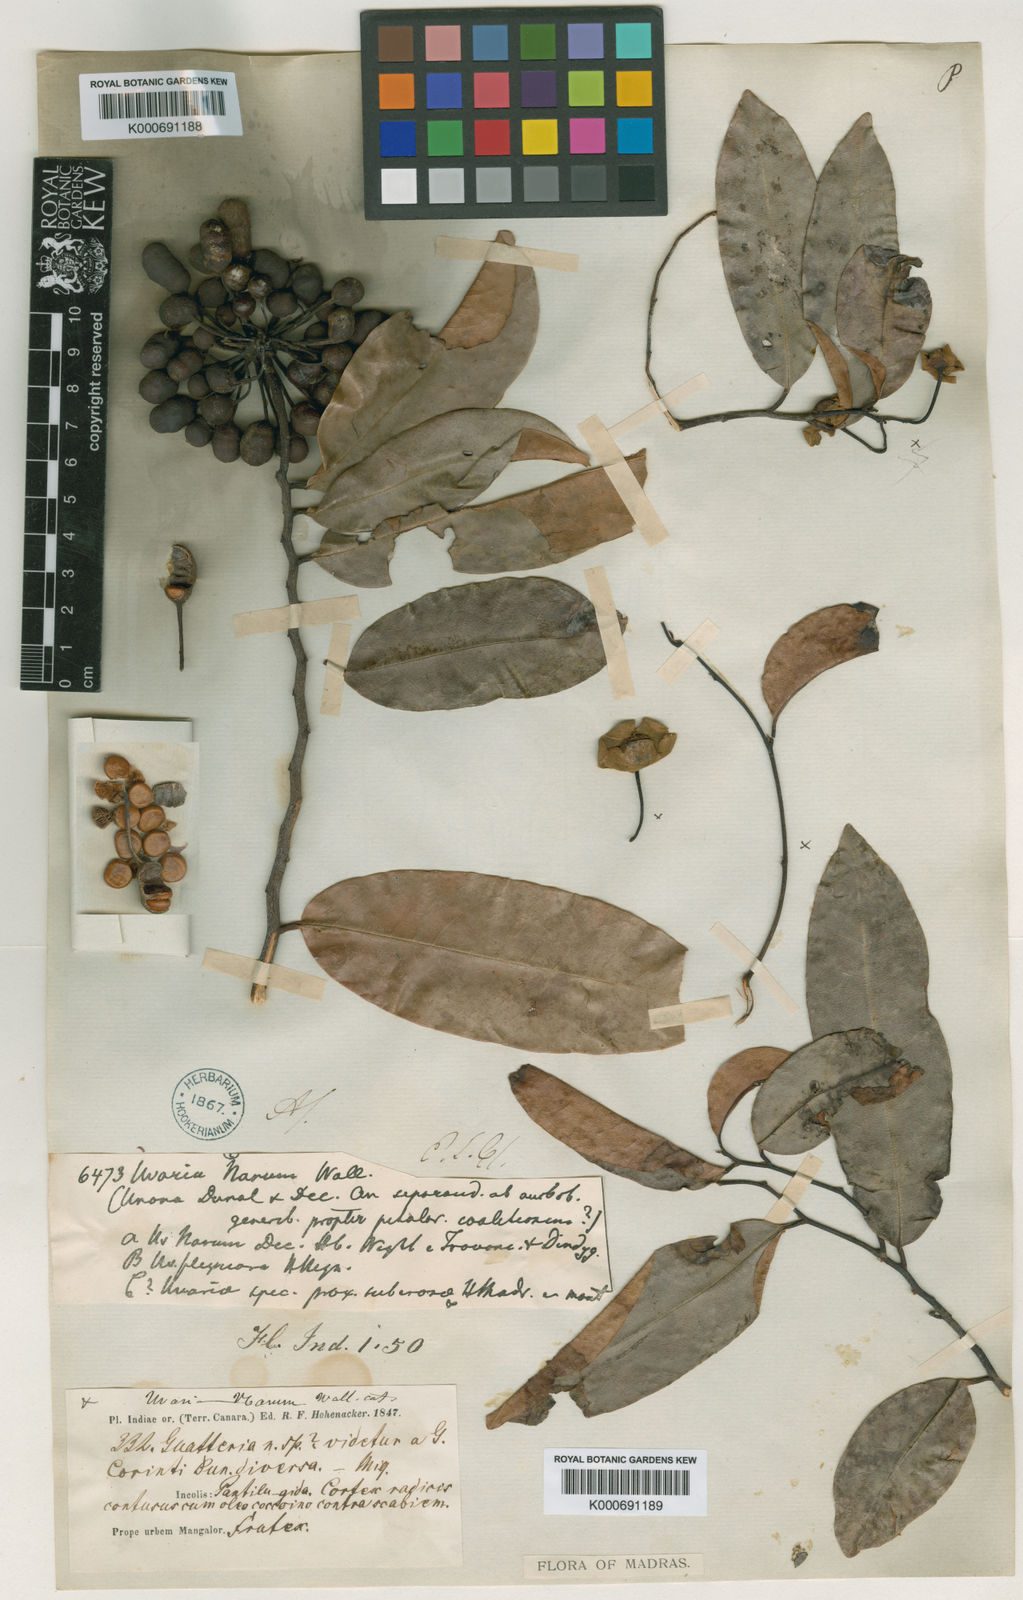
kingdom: Plantae
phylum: Tracheophyta
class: Magnoliopsida
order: Magnoliales
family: Annonaceae
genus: Uvaria
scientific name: Uvaria
